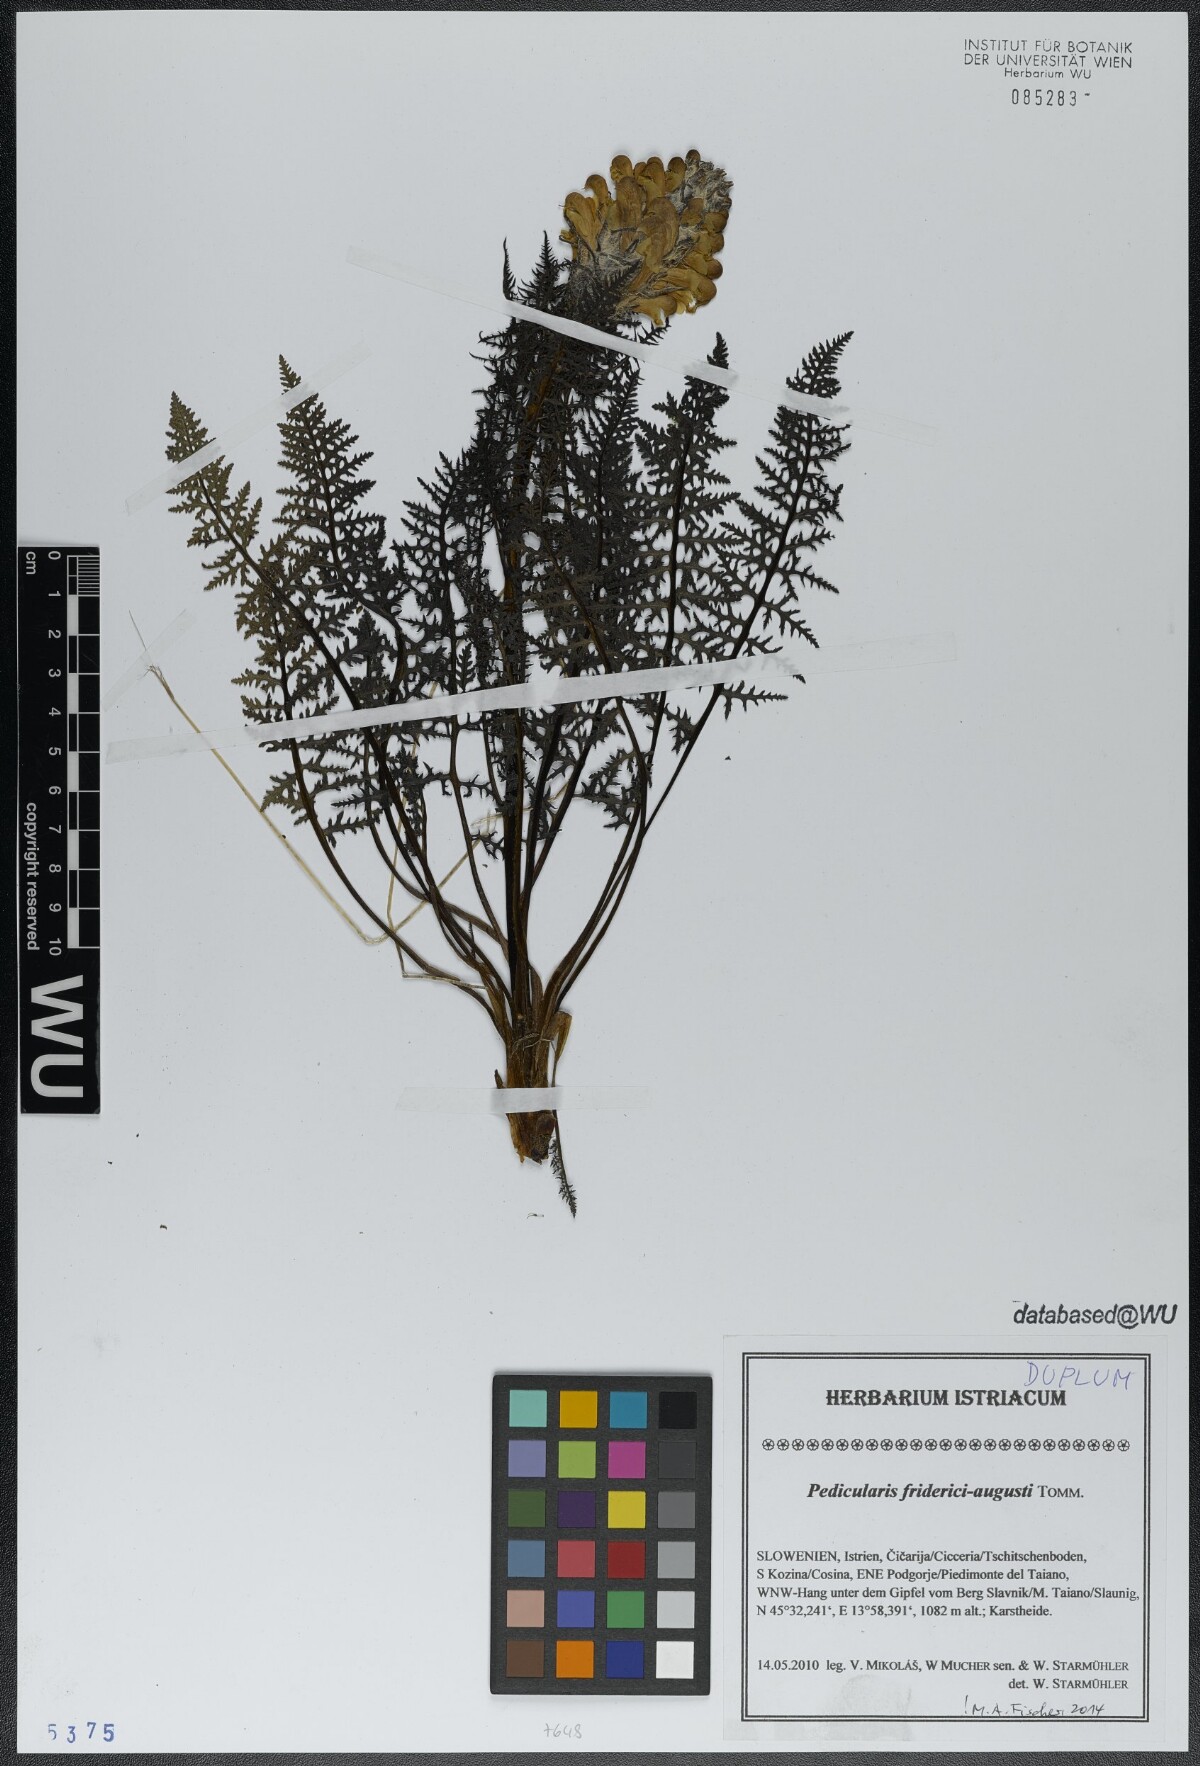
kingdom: Plantae
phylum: Tracheophyta
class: Magnoliopsida
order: Lamiales
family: Orobanchaceae
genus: Pedicularis
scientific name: Pedicularis friderici-augusti
